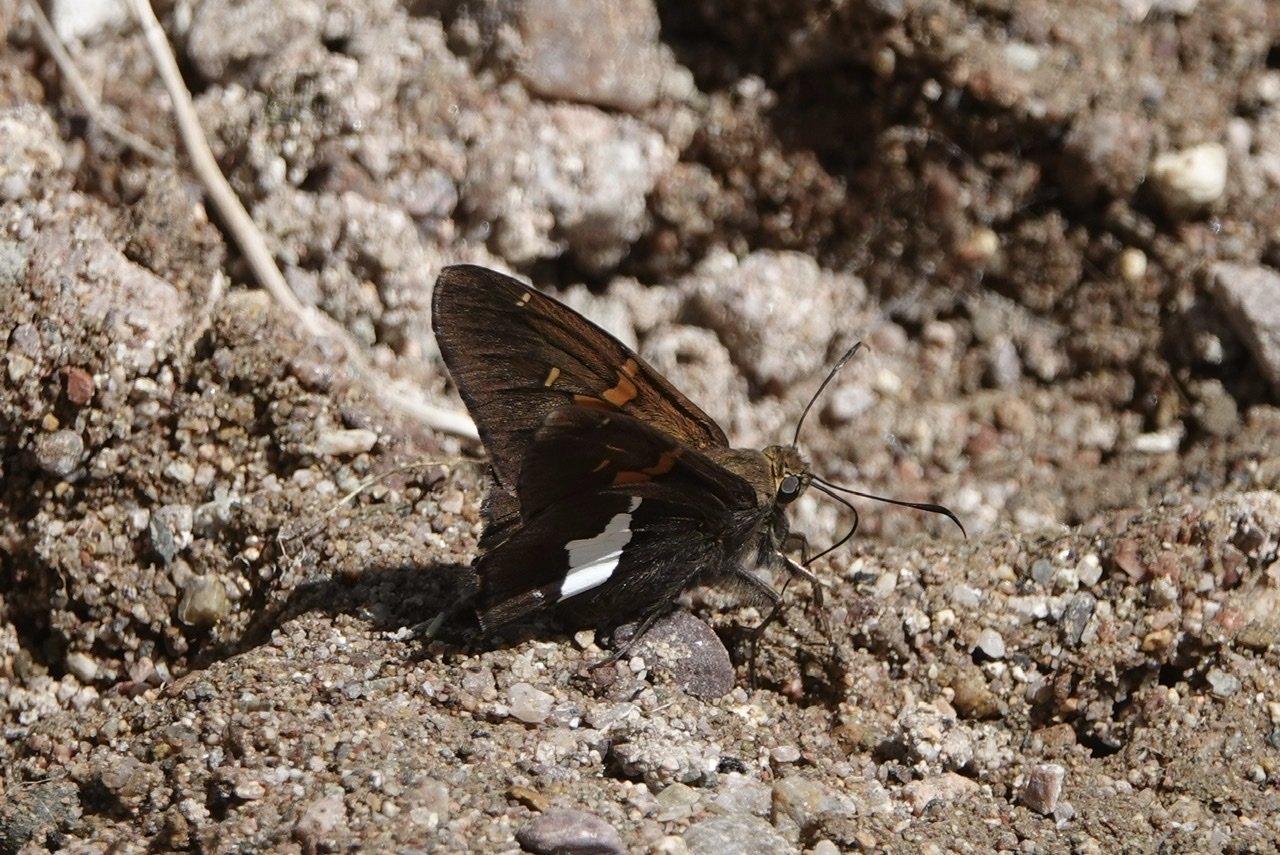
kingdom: Animalia
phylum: Arthropoda
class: Insecta
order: Lepidoptera
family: Hesperiidae
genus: Epargyreus
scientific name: Epargyreus clarus
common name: Silver-spotted Skipper
